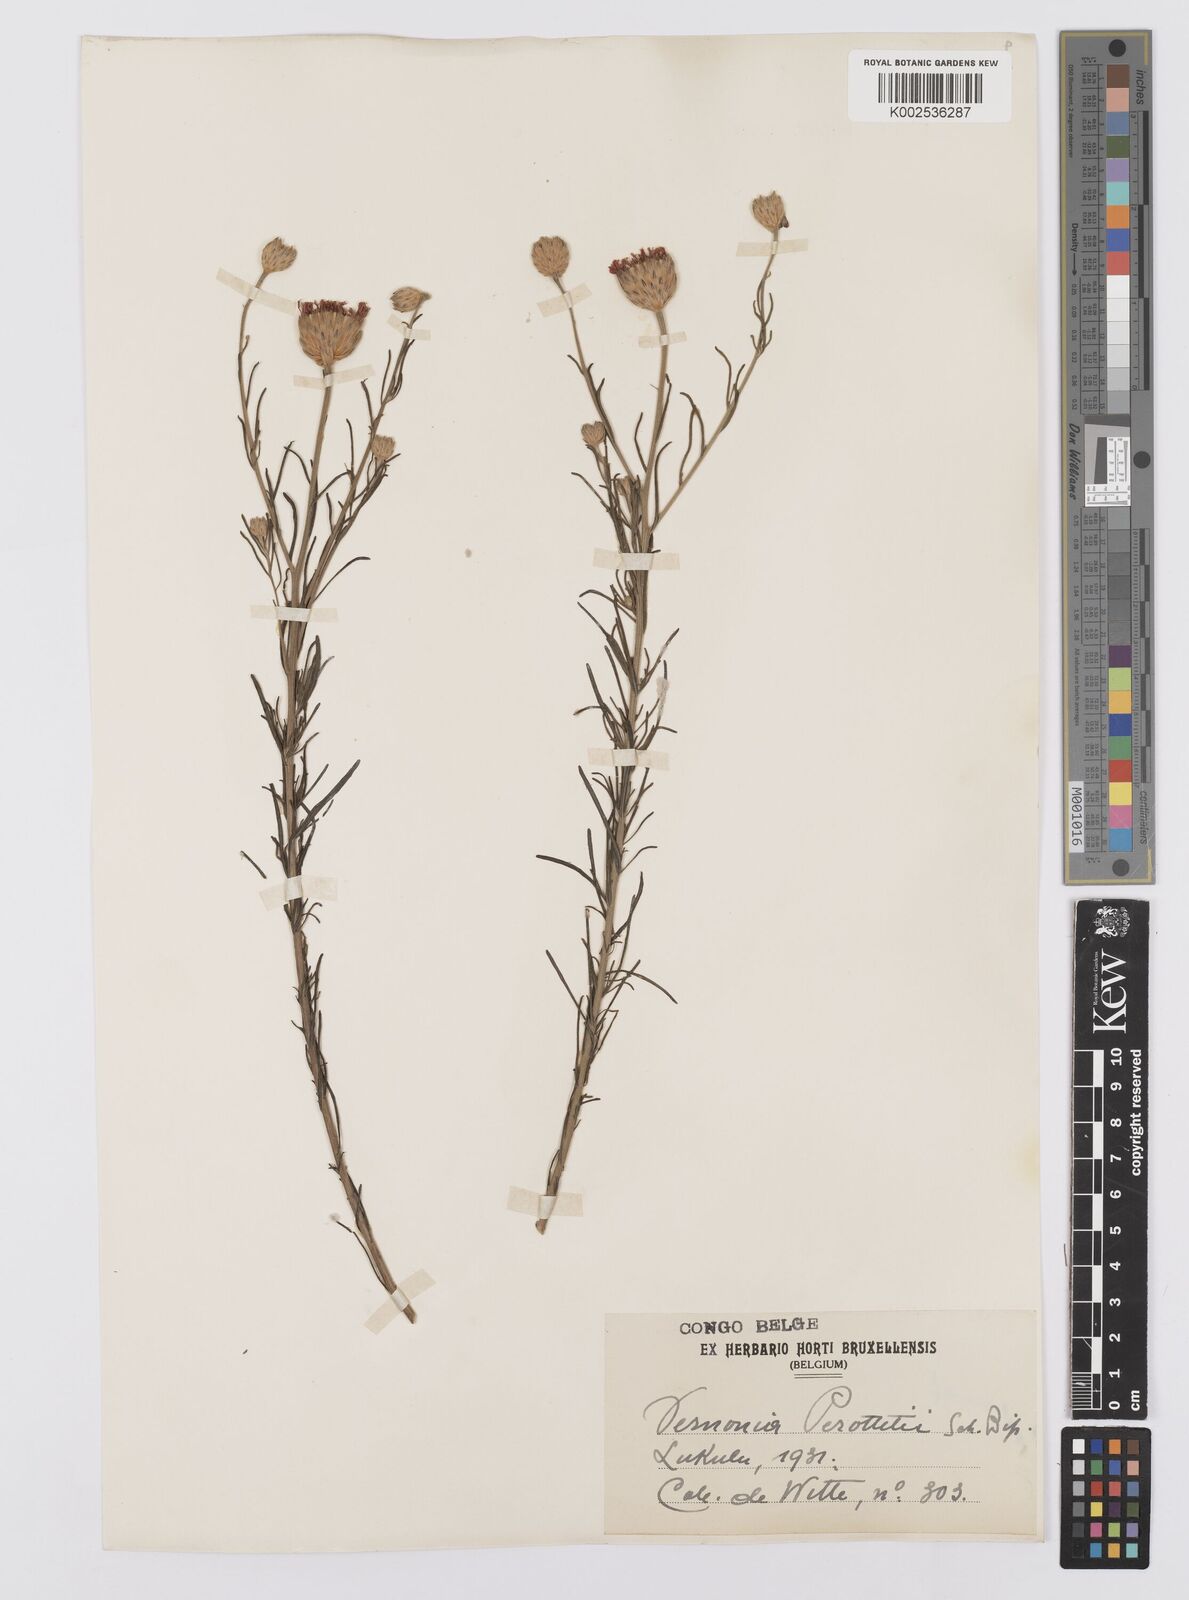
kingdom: Plantae
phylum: Tracheophyta
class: Magnoliopsida
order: Asterales
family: Asteraceae
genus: Crystallopollen
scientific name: Crystallopollen serratuloides
